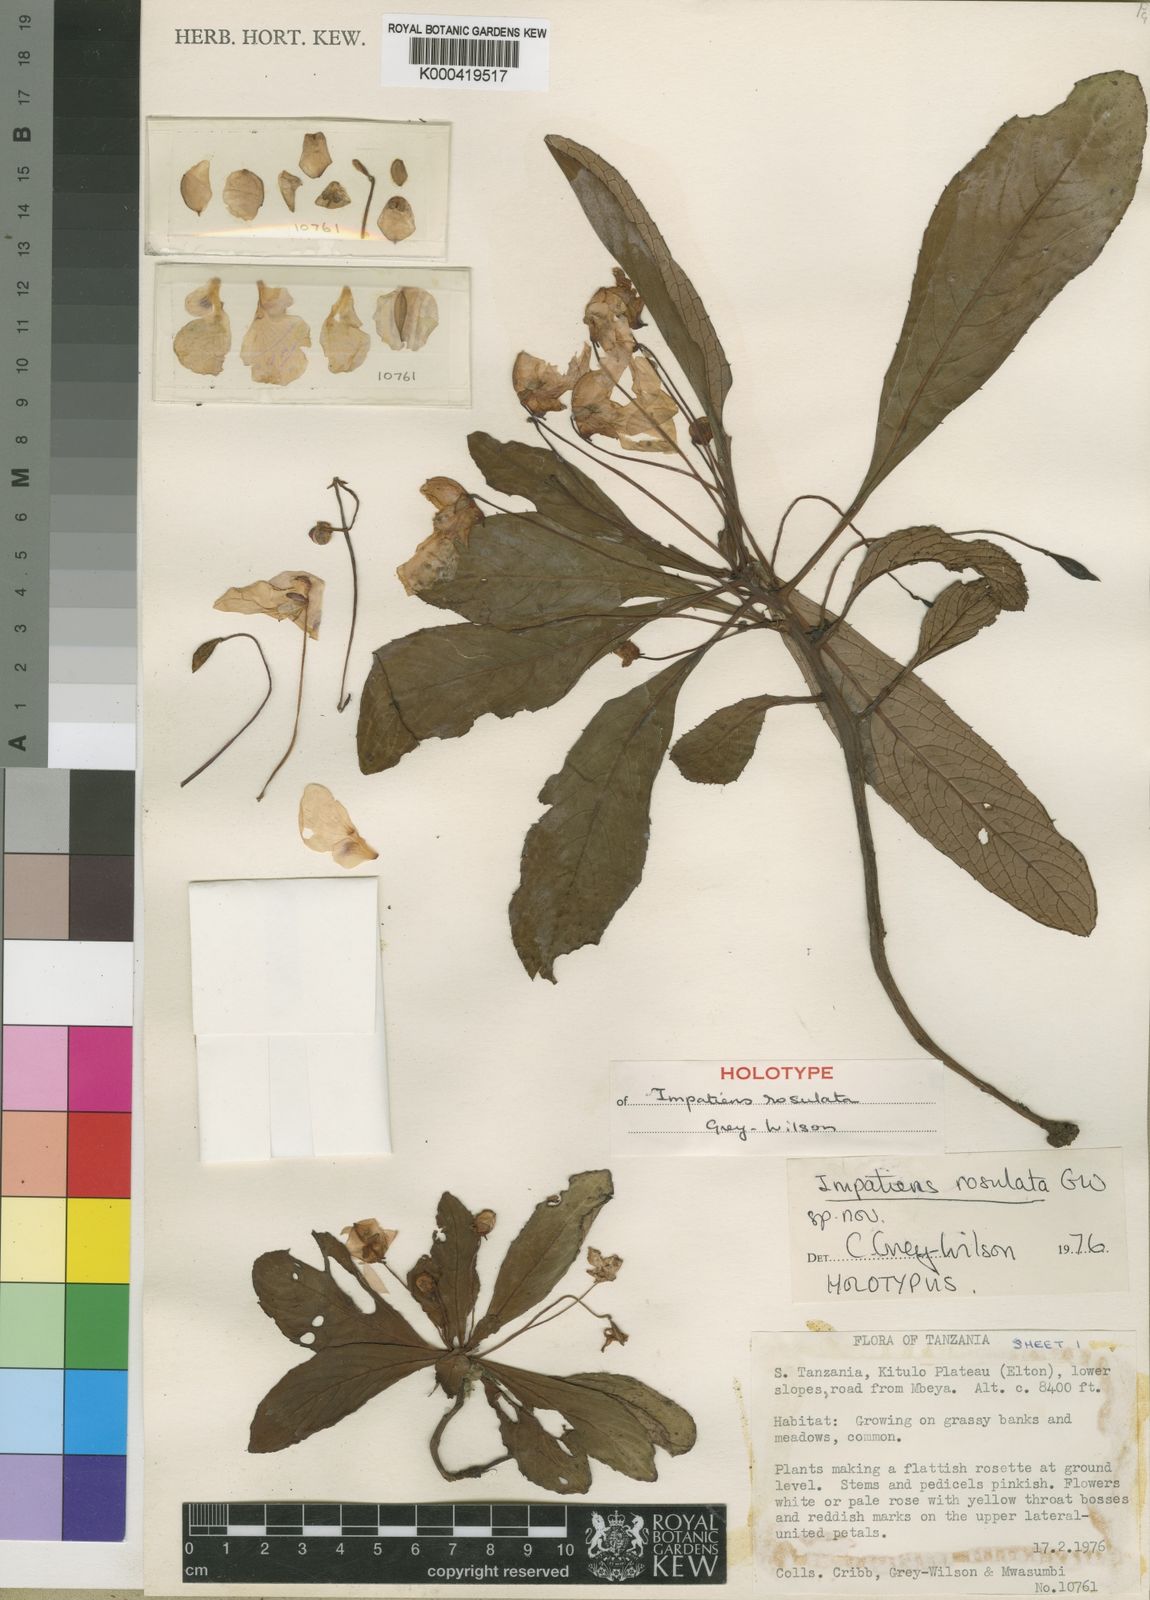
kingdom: Plantae
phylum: Tracheophyta
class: Magnoliopsida
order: Ericales
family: Balsaminaceae
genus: Impatiens
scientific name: Impatiens rosulata
